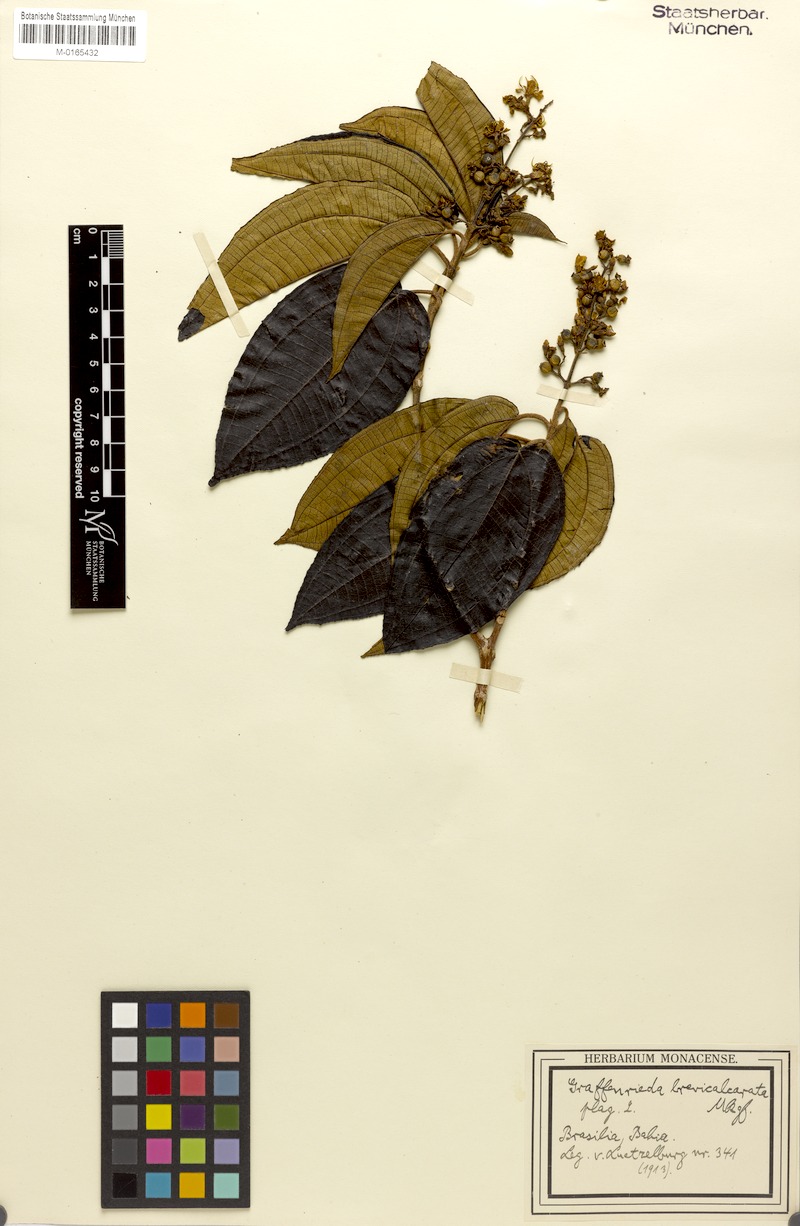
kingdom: Plantae
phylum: Tracheophyta
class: Magnoliopsida
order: Myrtales
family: Melastomataceae
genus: Miconia
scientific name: Miconia jucunda
